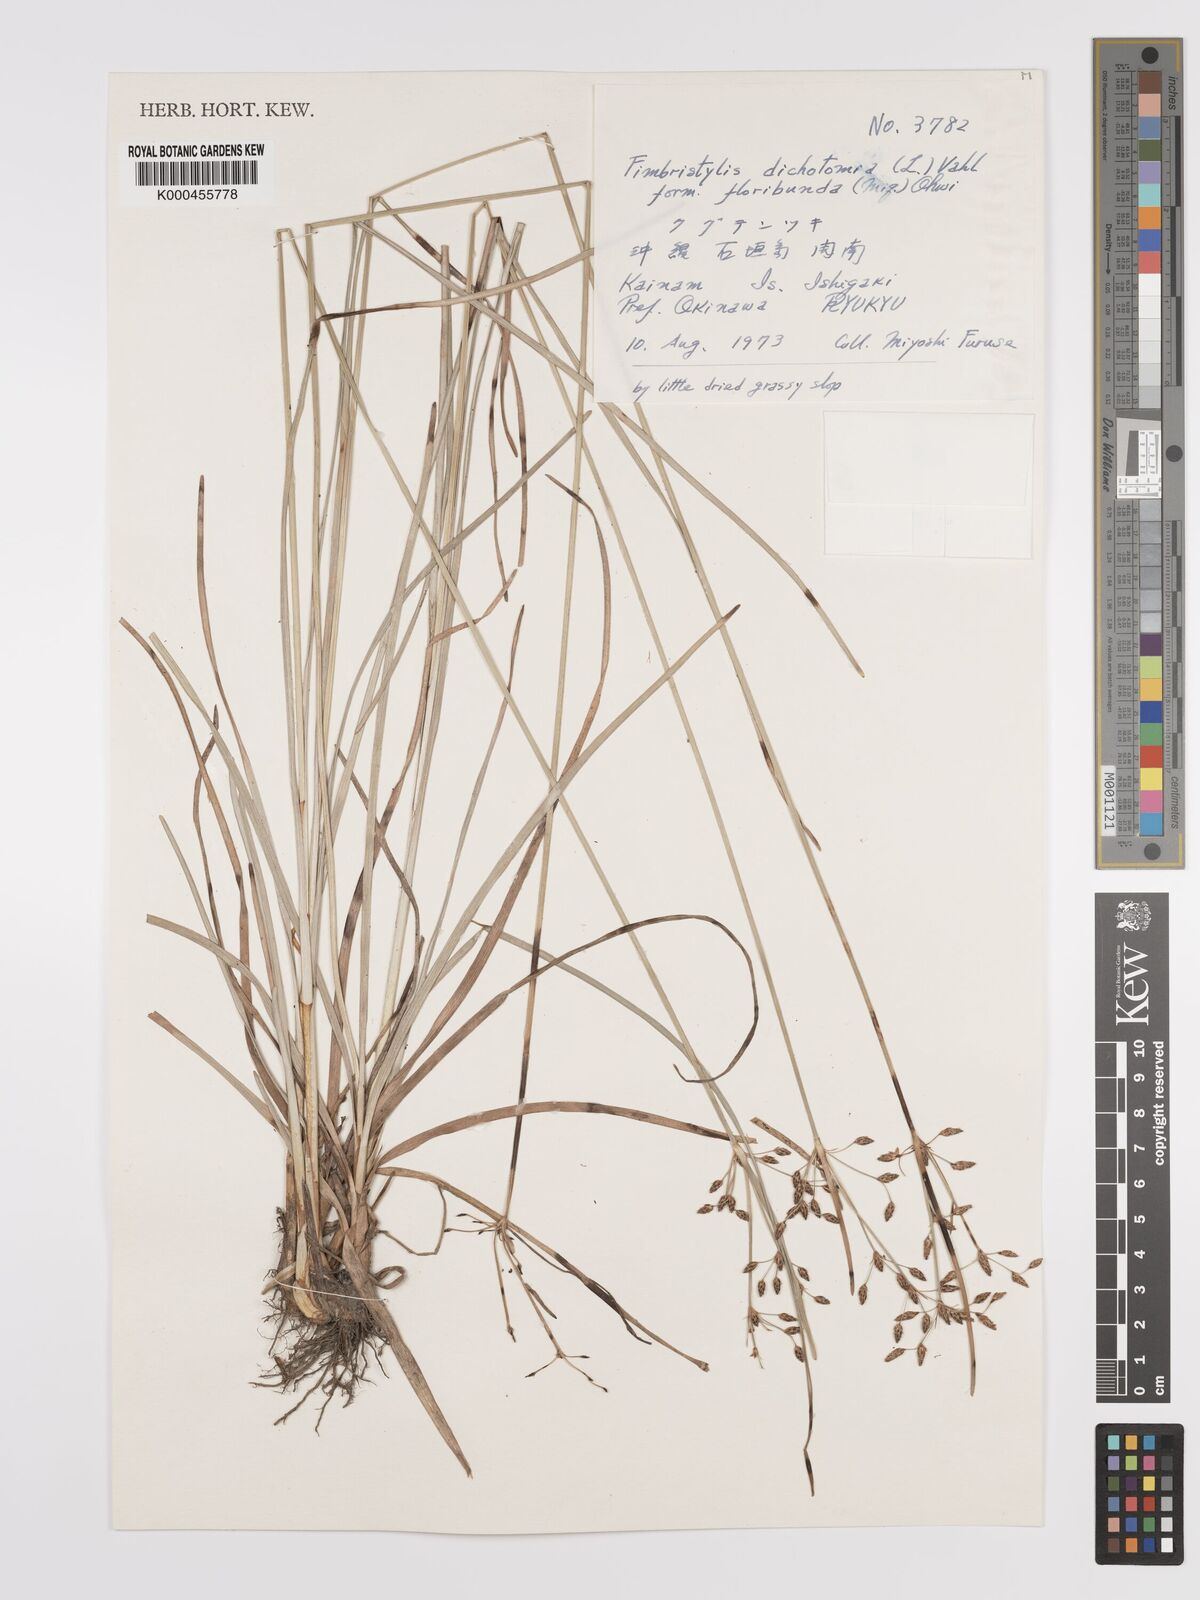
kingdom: Plantae
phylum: Tracheophyta
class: Liliopsida
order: Poales
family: Cyperaceae
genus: Fimbristylis
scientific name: Fimbristylis dichotoma
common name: Forked fimbry
